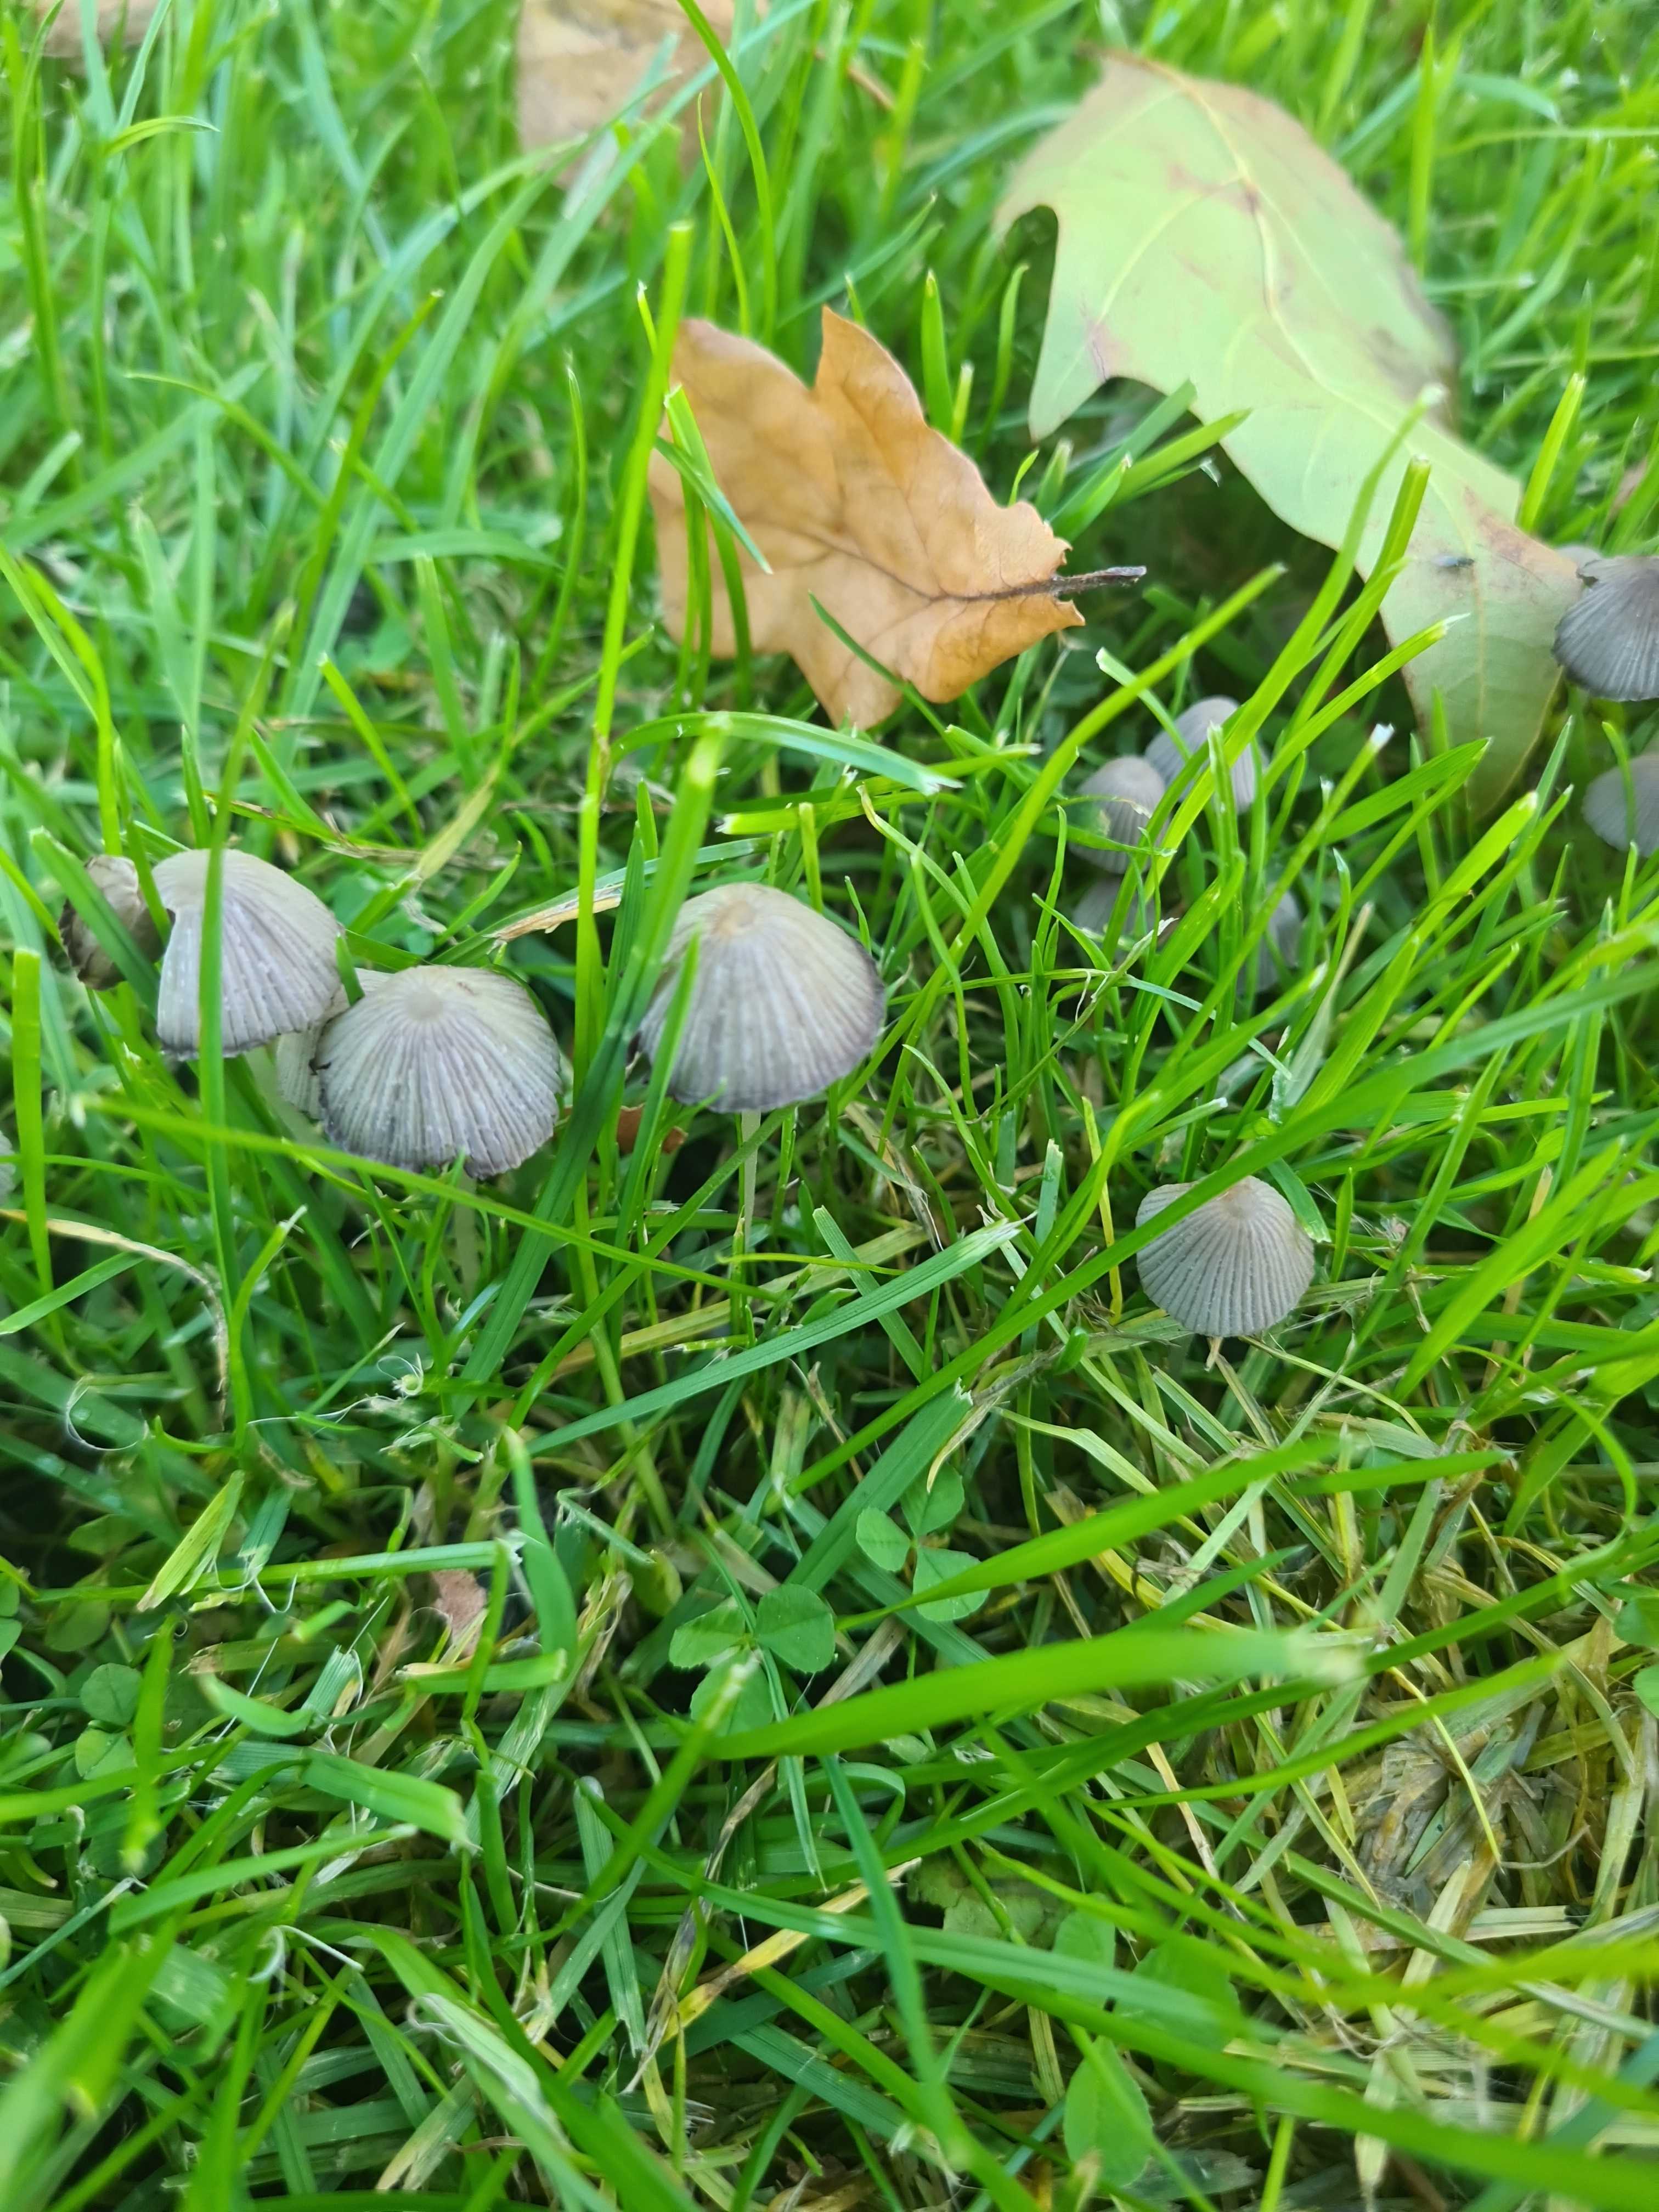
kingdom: Fungi
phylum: Basidiomycota
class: Agaricomycetes
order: Agaricales
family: Psathyrellaceae
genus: Coprinellus
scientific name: Coprinellus disseminatus
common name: bredsået blækhat
